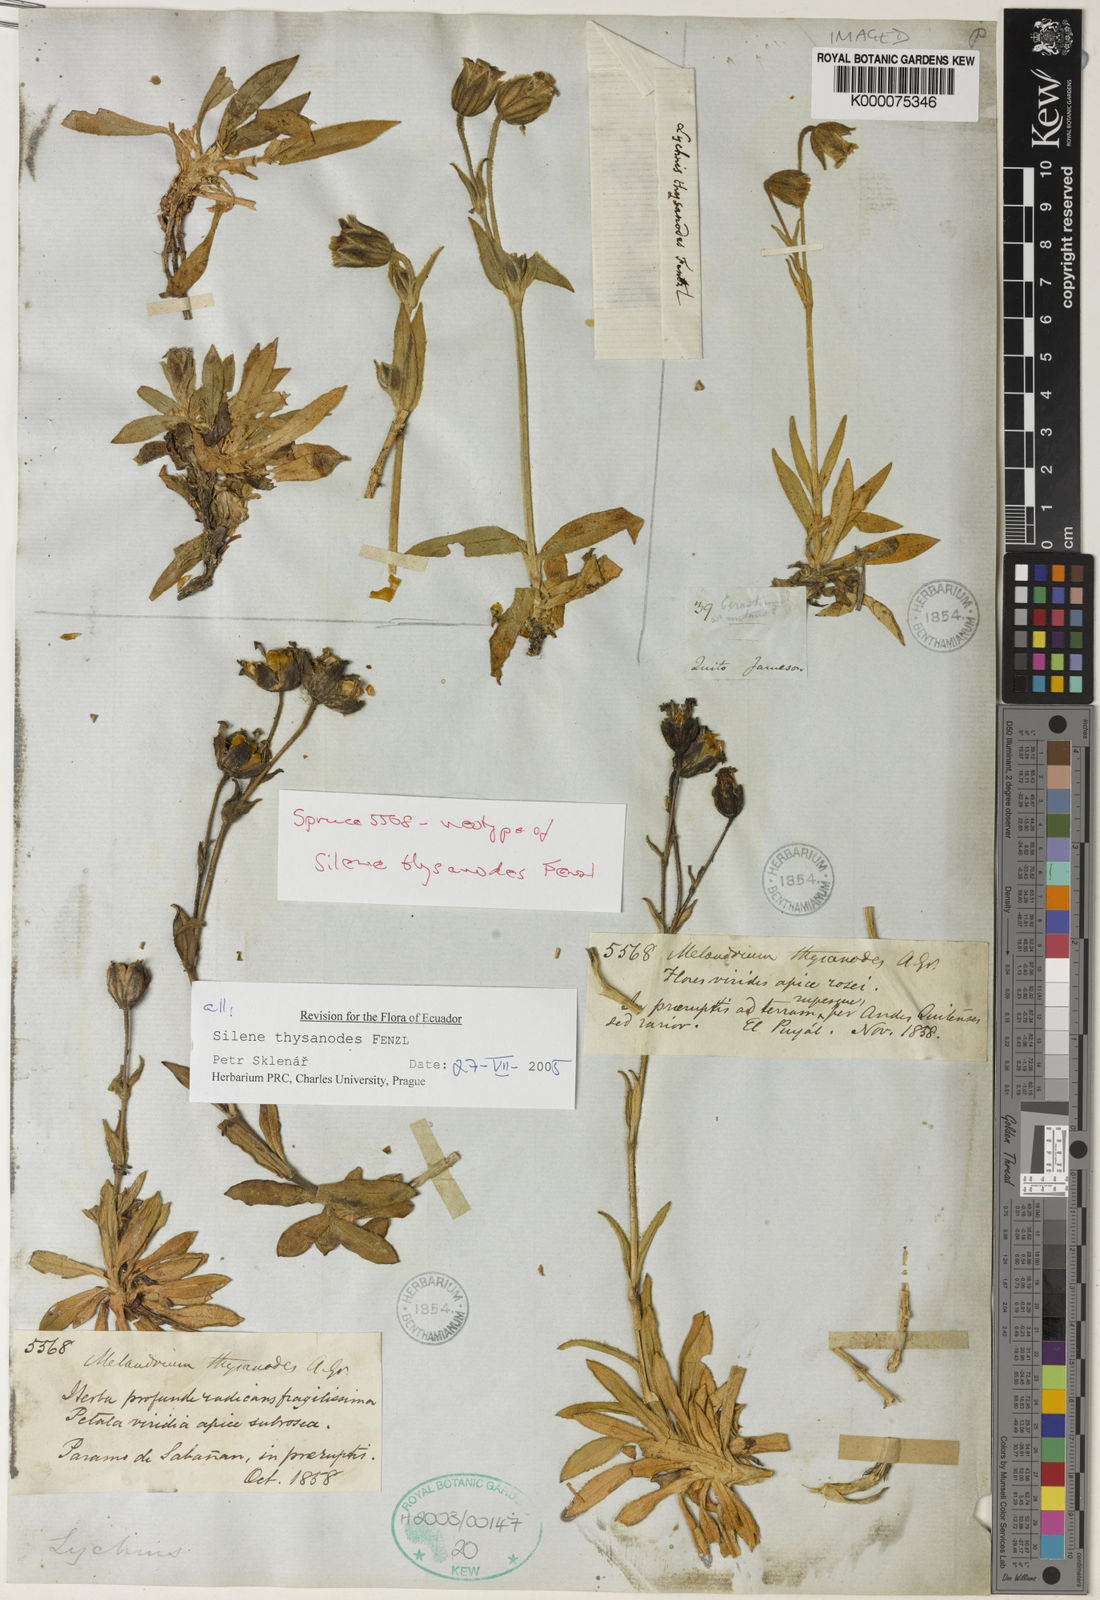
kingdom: Plantae
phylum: Tracheophyta
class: Magnoliopsida
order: Caryophyllales
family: Caryophyllaceae
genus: Silene
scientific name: Silene thysanodes
